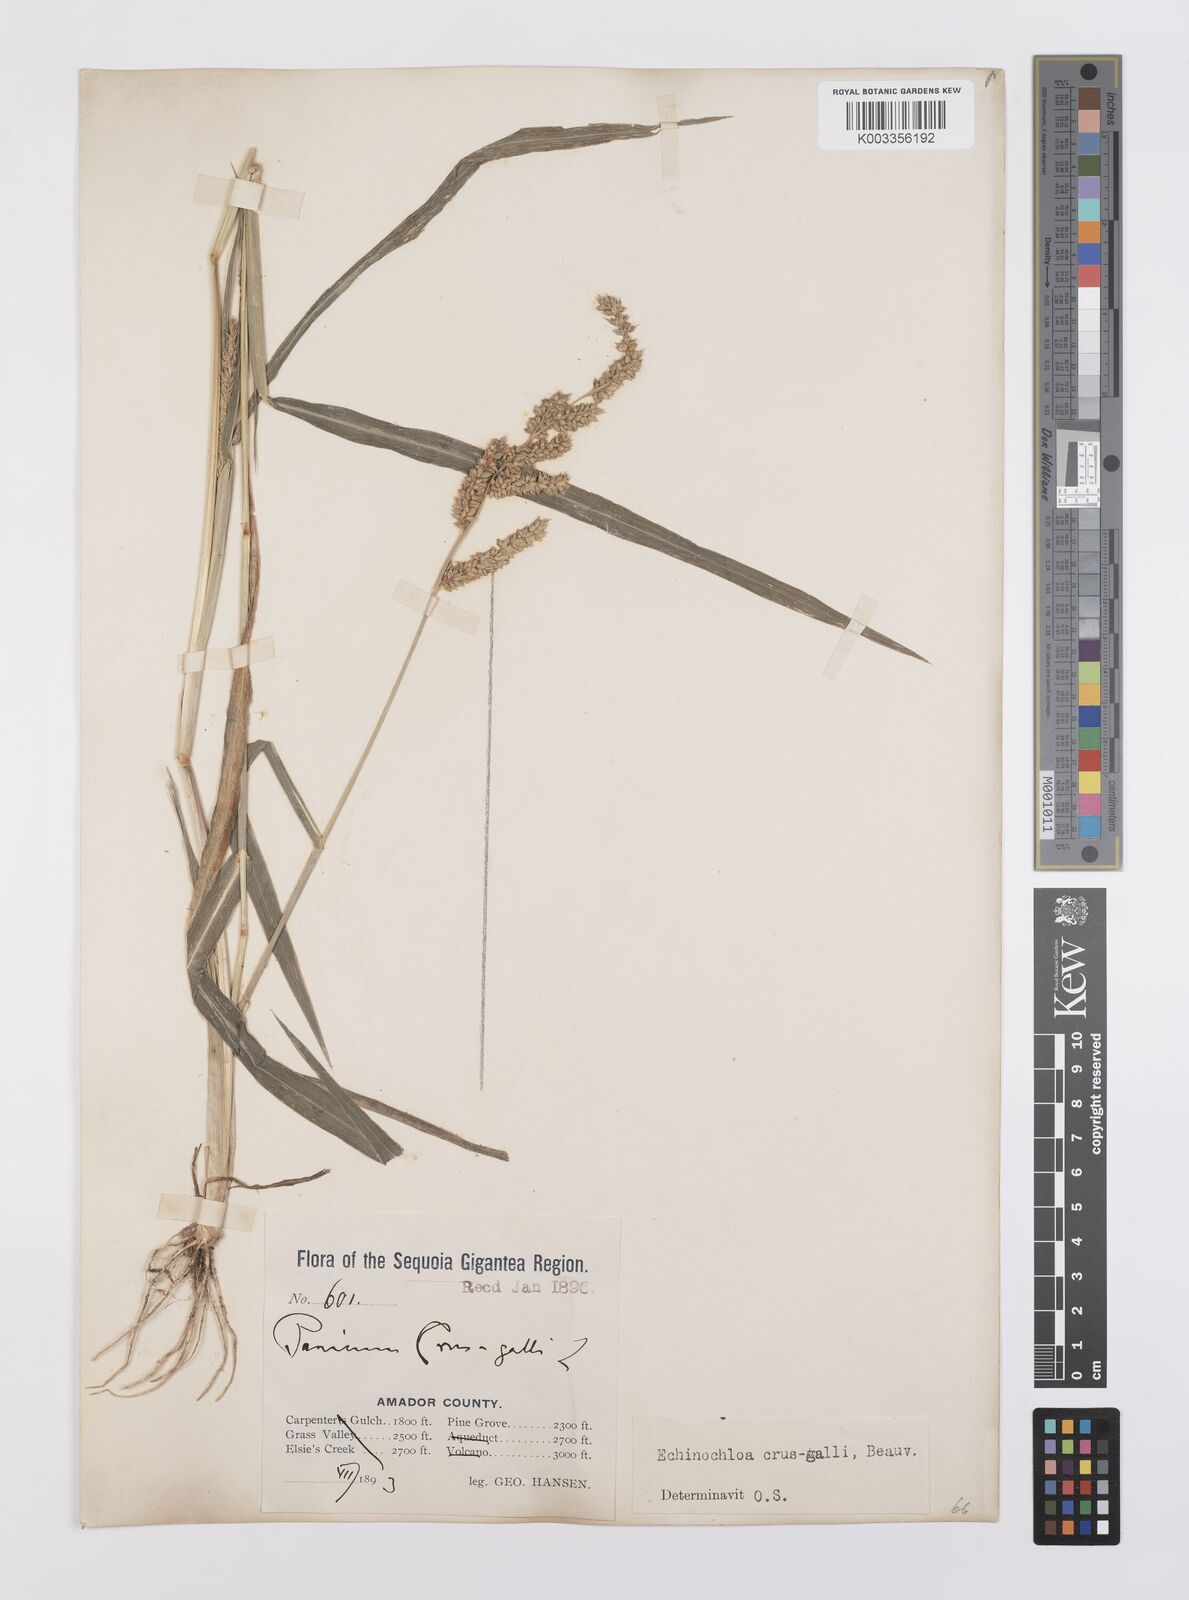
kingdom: Plantae
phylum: Tracheophyta
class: Liliopsida
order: Poales
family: Poaceae
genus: Echinochloa
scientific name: Echinochloa crus-galli
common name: Cockspur
